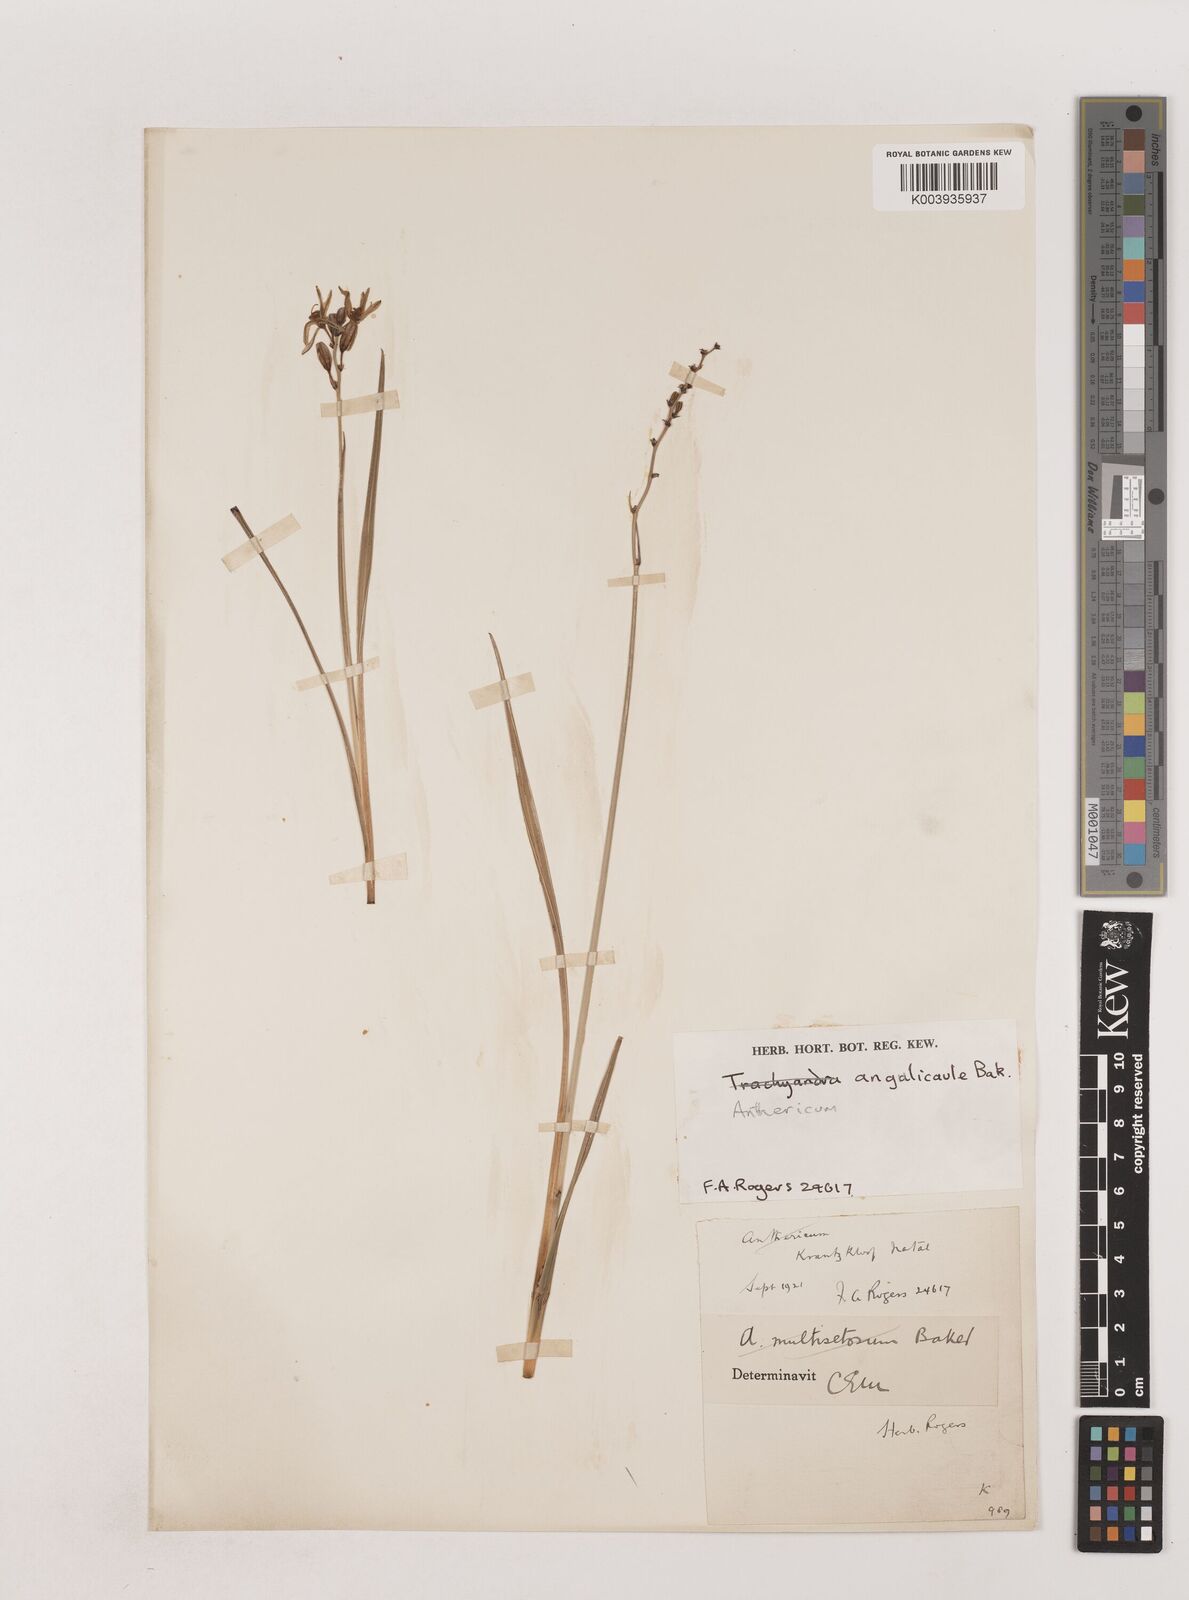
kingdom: Plantae
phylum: Tracheophyta
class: Liliopsida
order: Asparagales
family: Asparagaceae
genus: Chlorophytum
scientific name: Chlorophytum angulicaule
